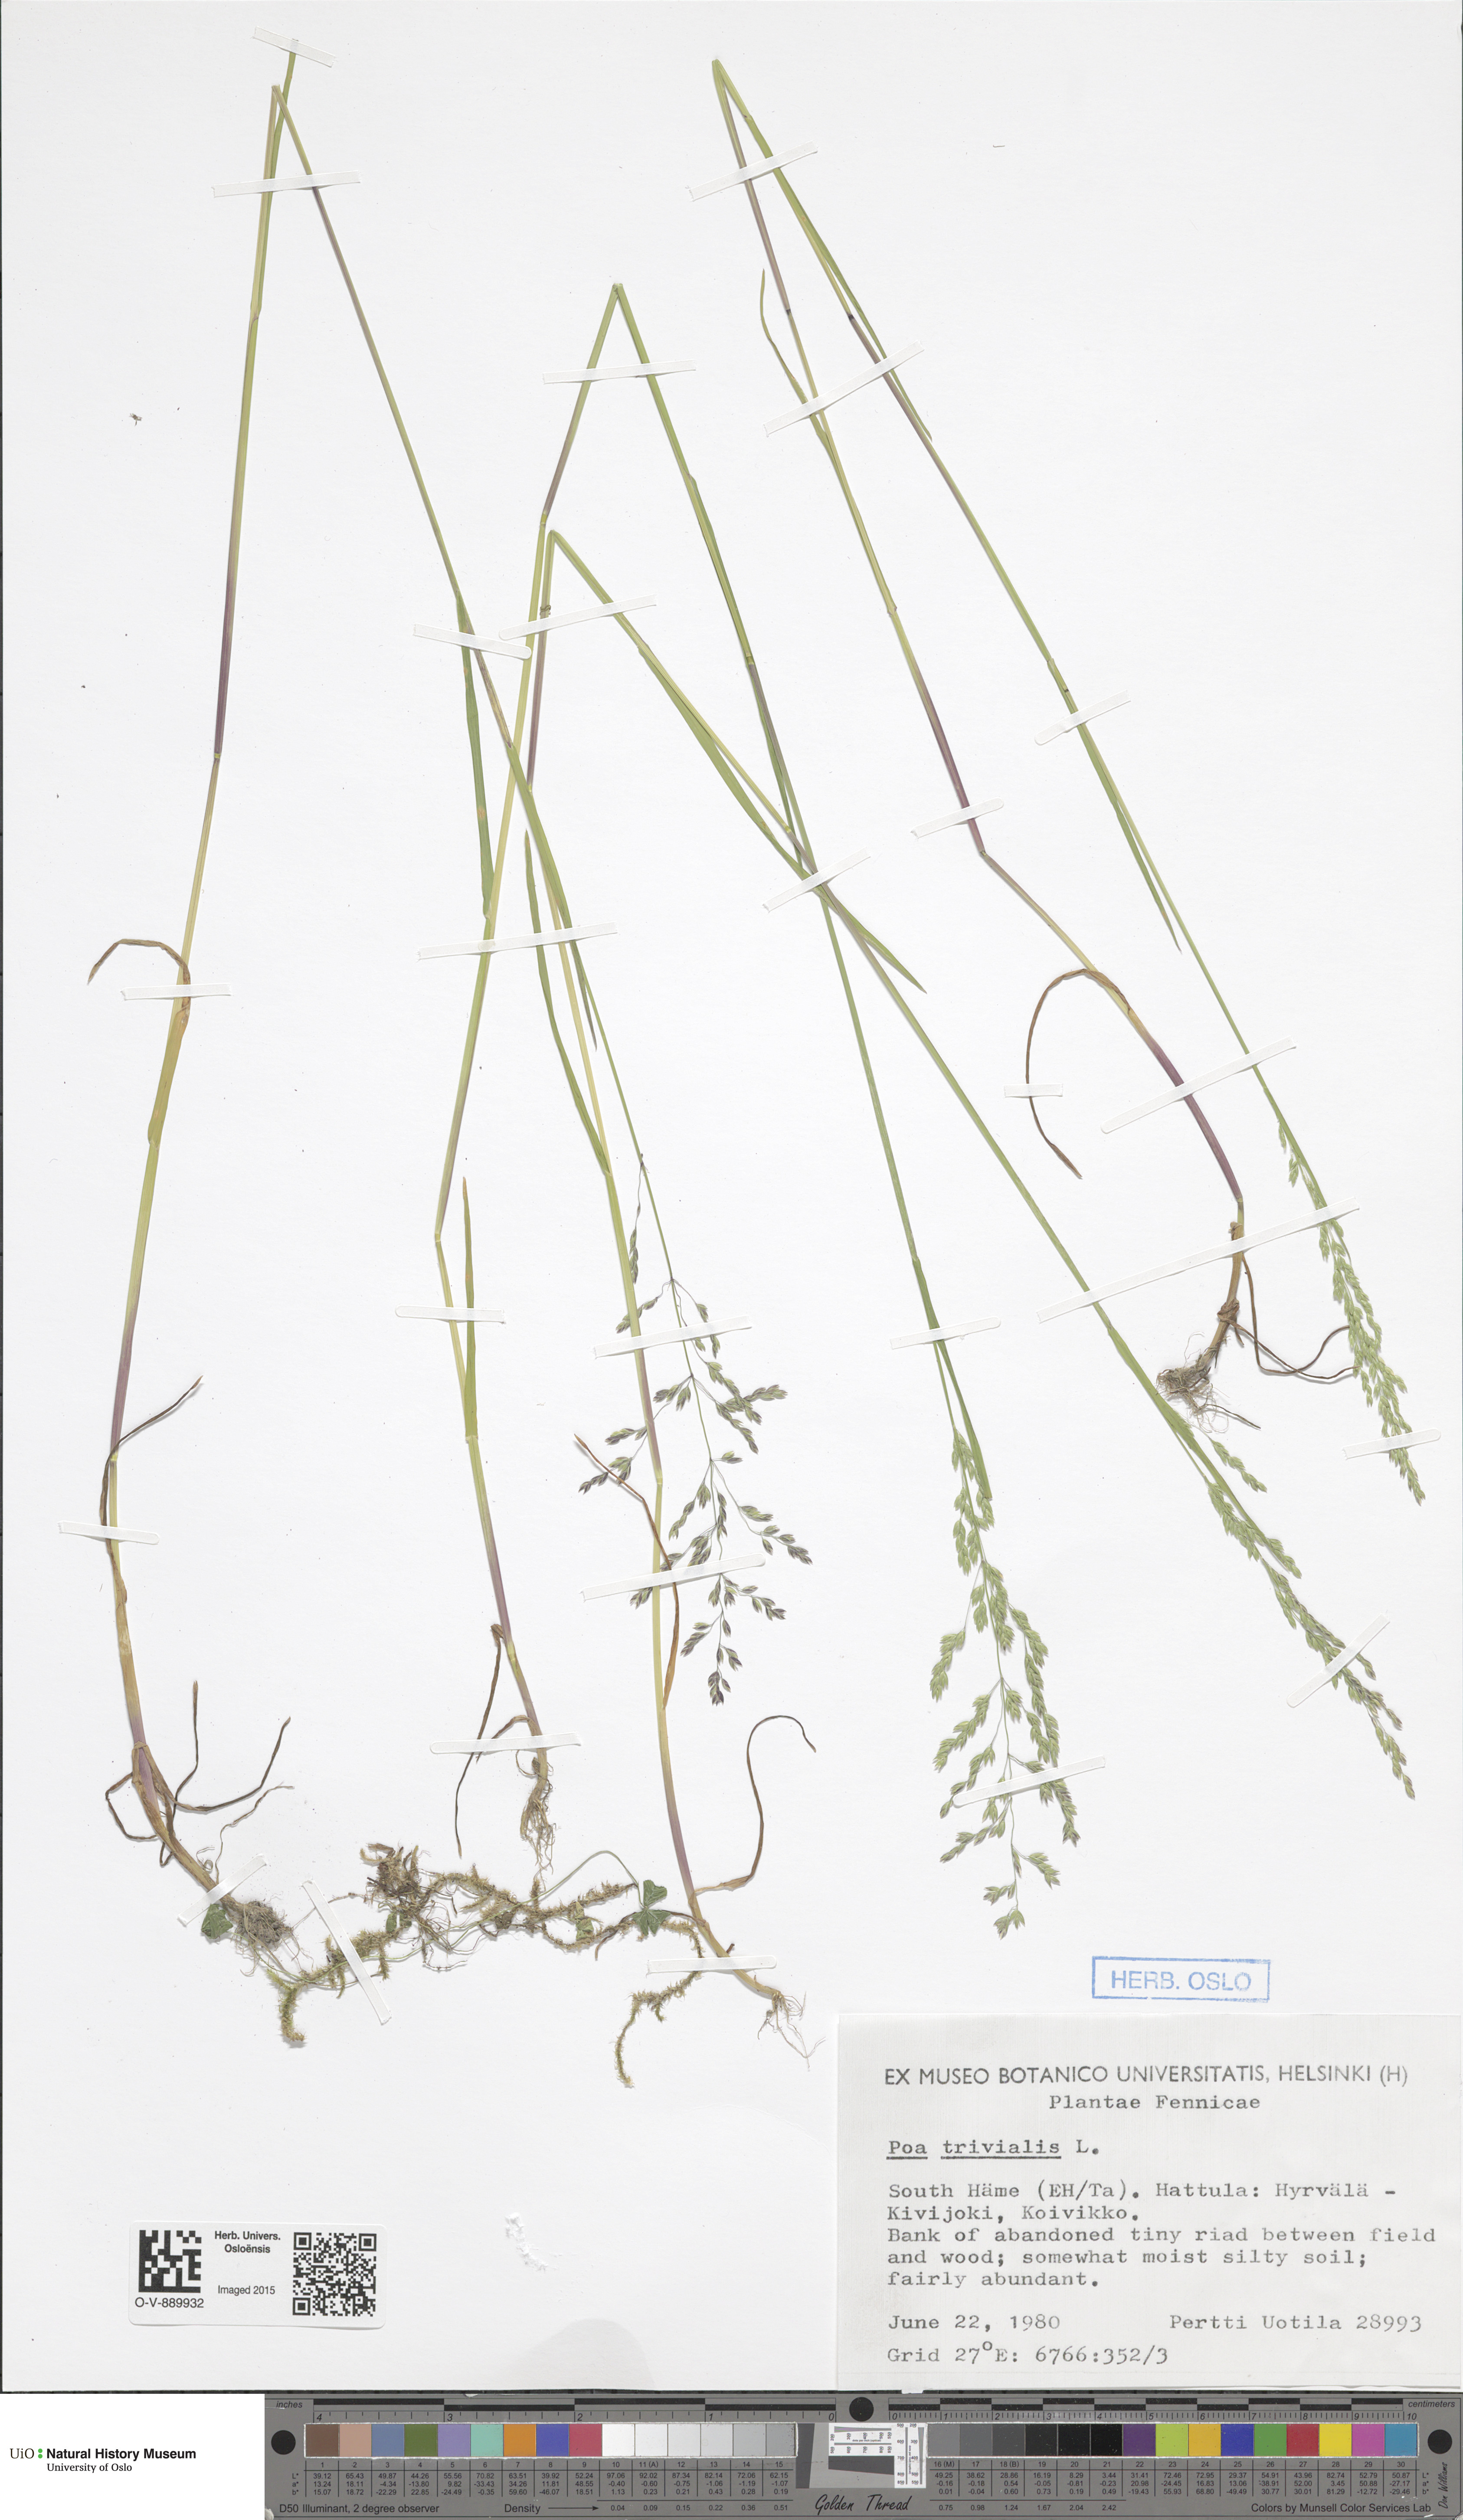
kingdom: Plantae
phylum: Tracheophyta
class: Liliopsida
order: Poales
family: Poaceae
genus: Poa
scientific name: Poa trivialis
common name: Rough bluegrass
